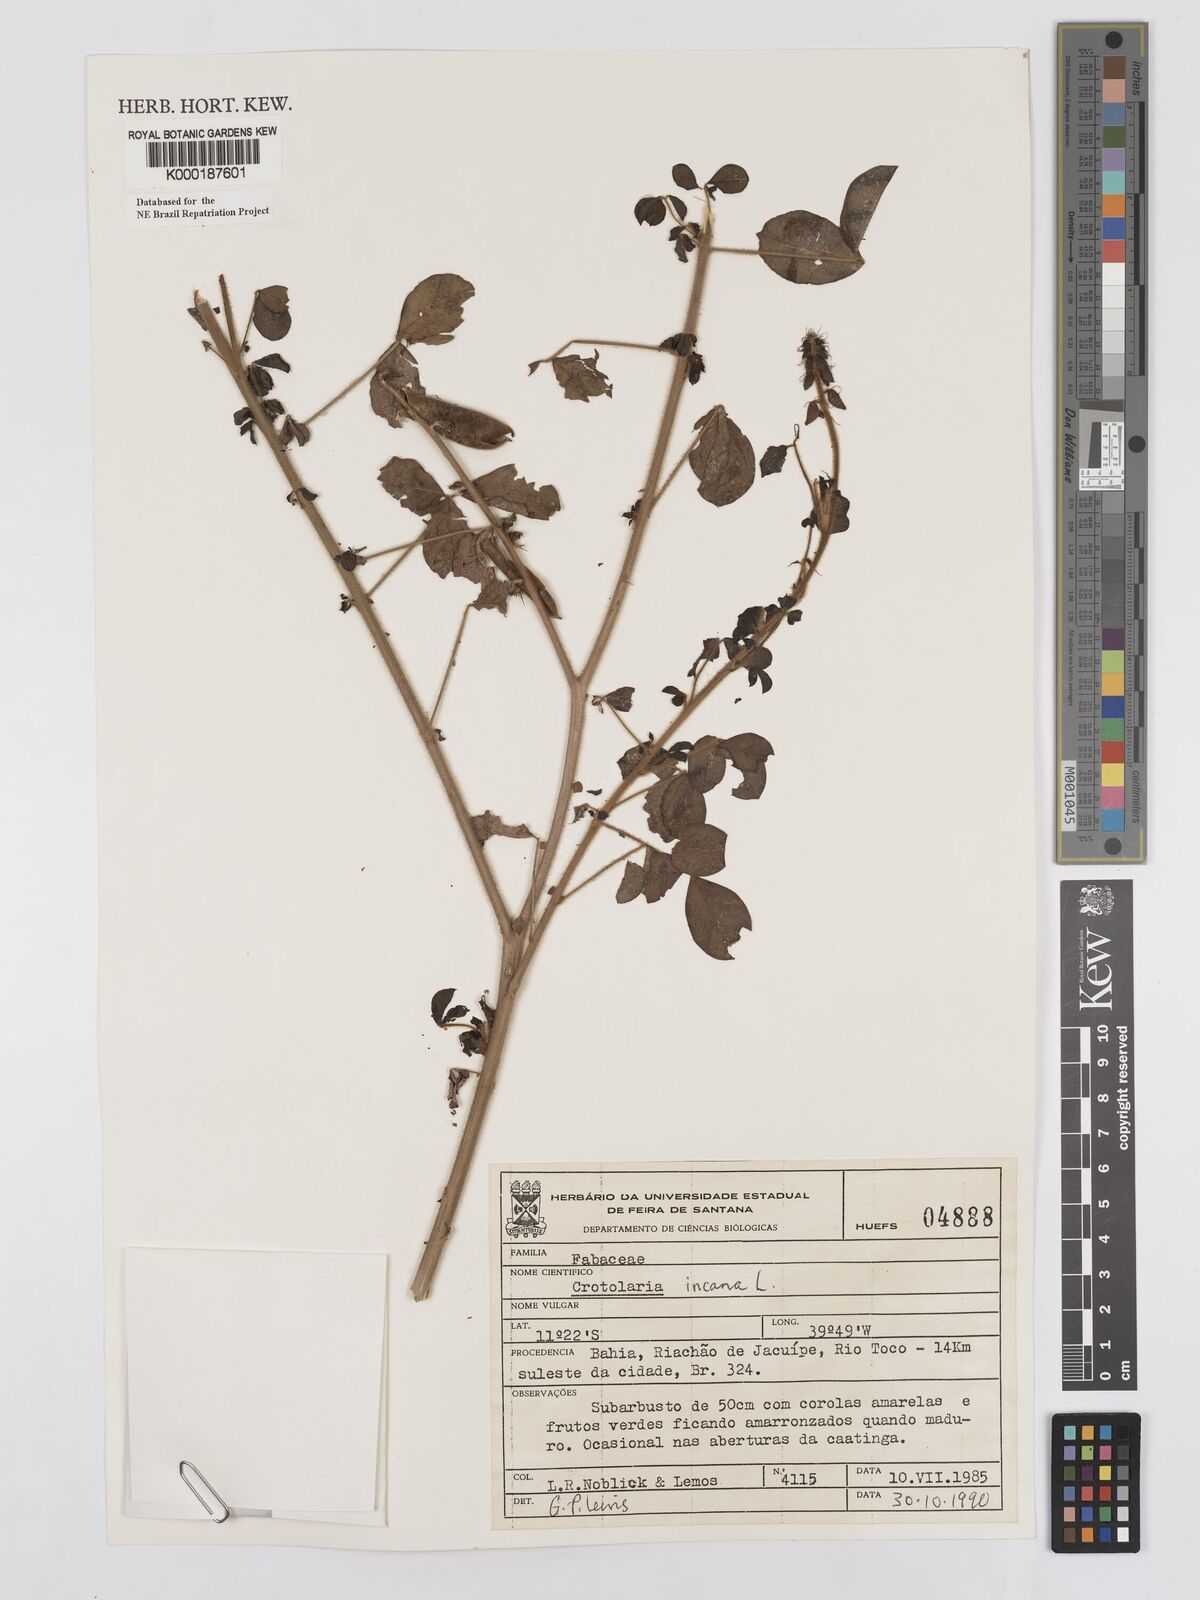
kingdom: Plantae
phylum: Tracheophyta
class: Magnoliopsida
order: Fabales
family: Fabaceae
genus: Crotalaria
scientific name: Crotalaria incana
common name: Shakeshake
